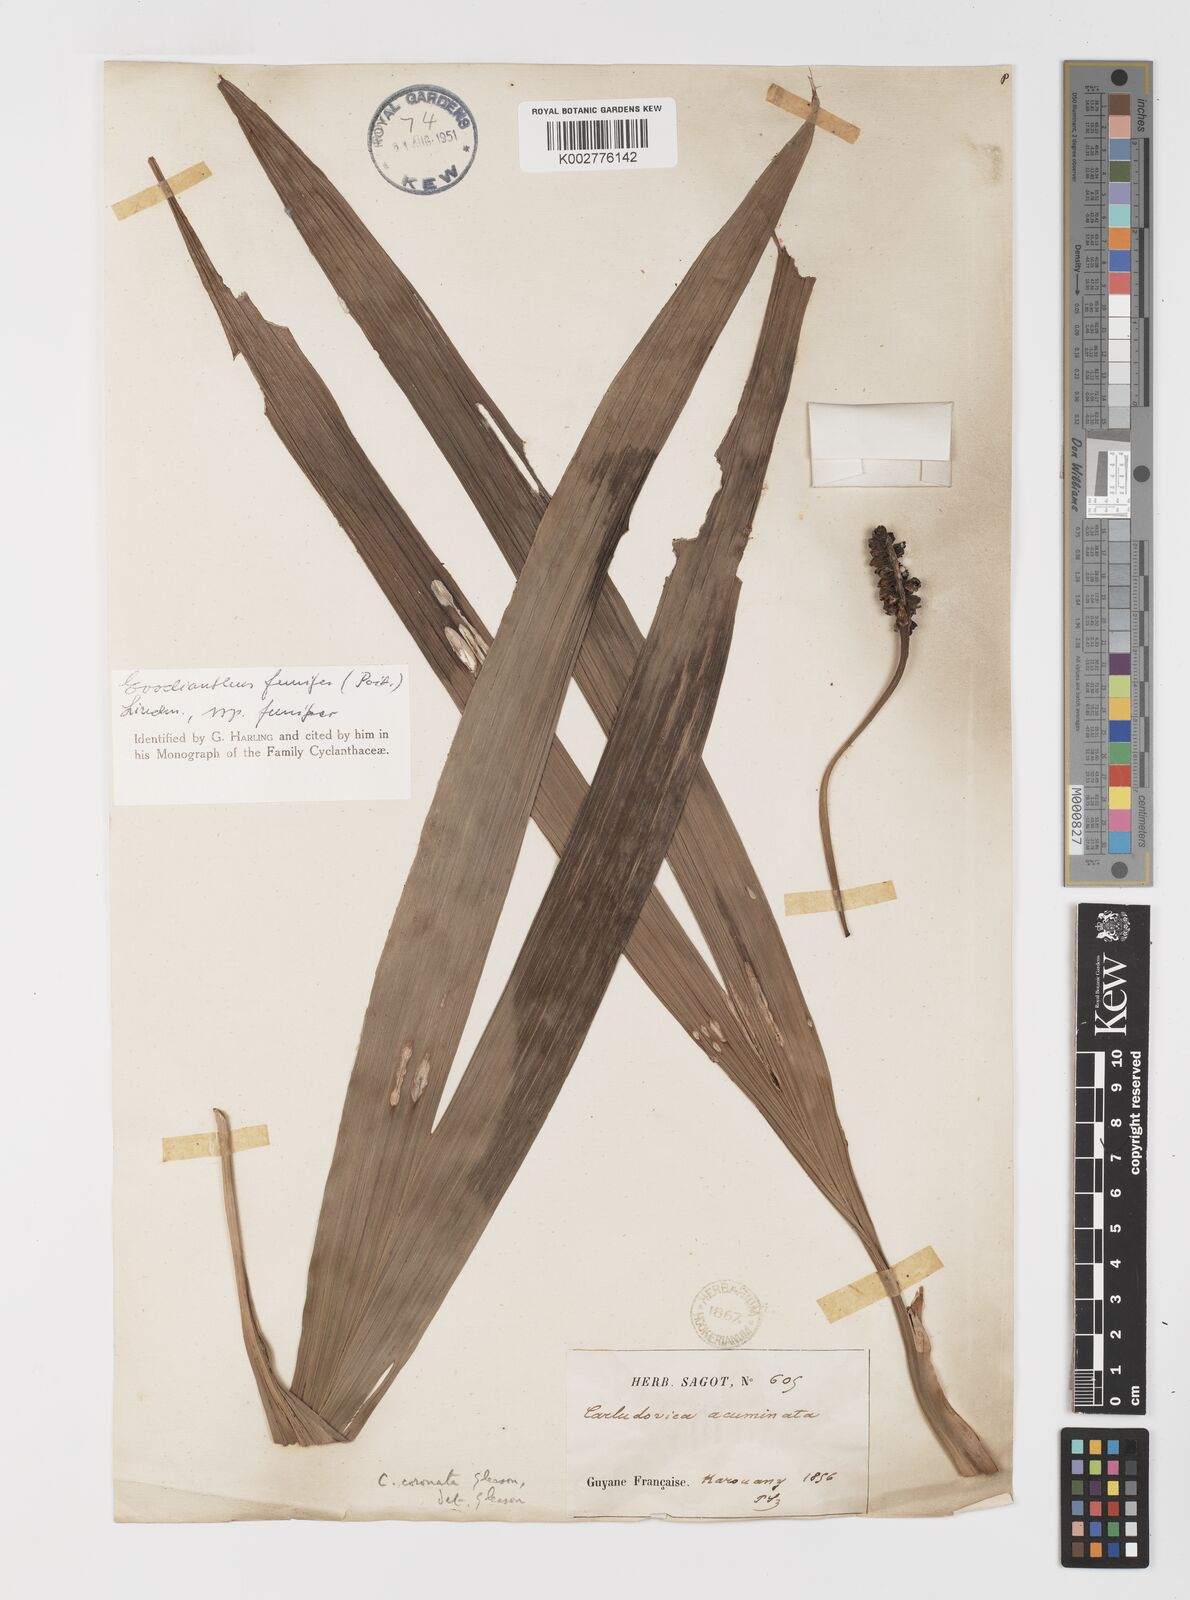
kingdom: Plantae
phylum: Tracheophyta
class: Liliopsida
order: Pandanales
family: Cyclanthaceae
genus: Evodianthus
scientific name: Evodianthus
